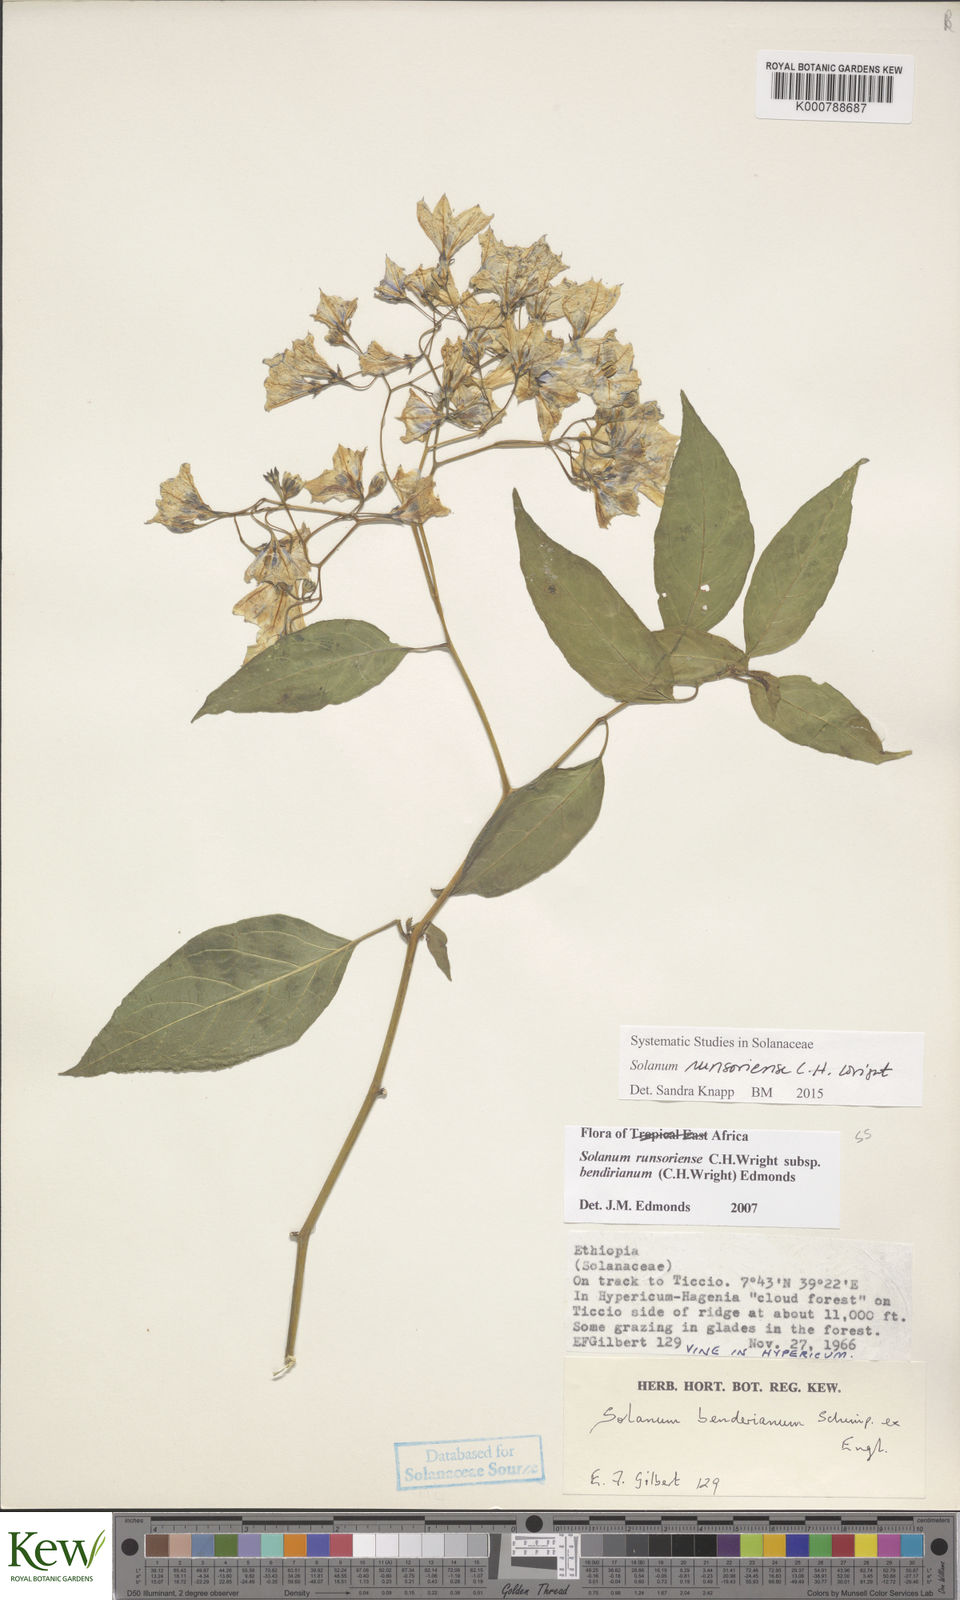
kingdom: Plantae
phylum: Tracheophyta
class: Magnoliopsida
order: Solanales
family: Solanaceae
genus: Solanum
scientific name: Solanum runsoriense
